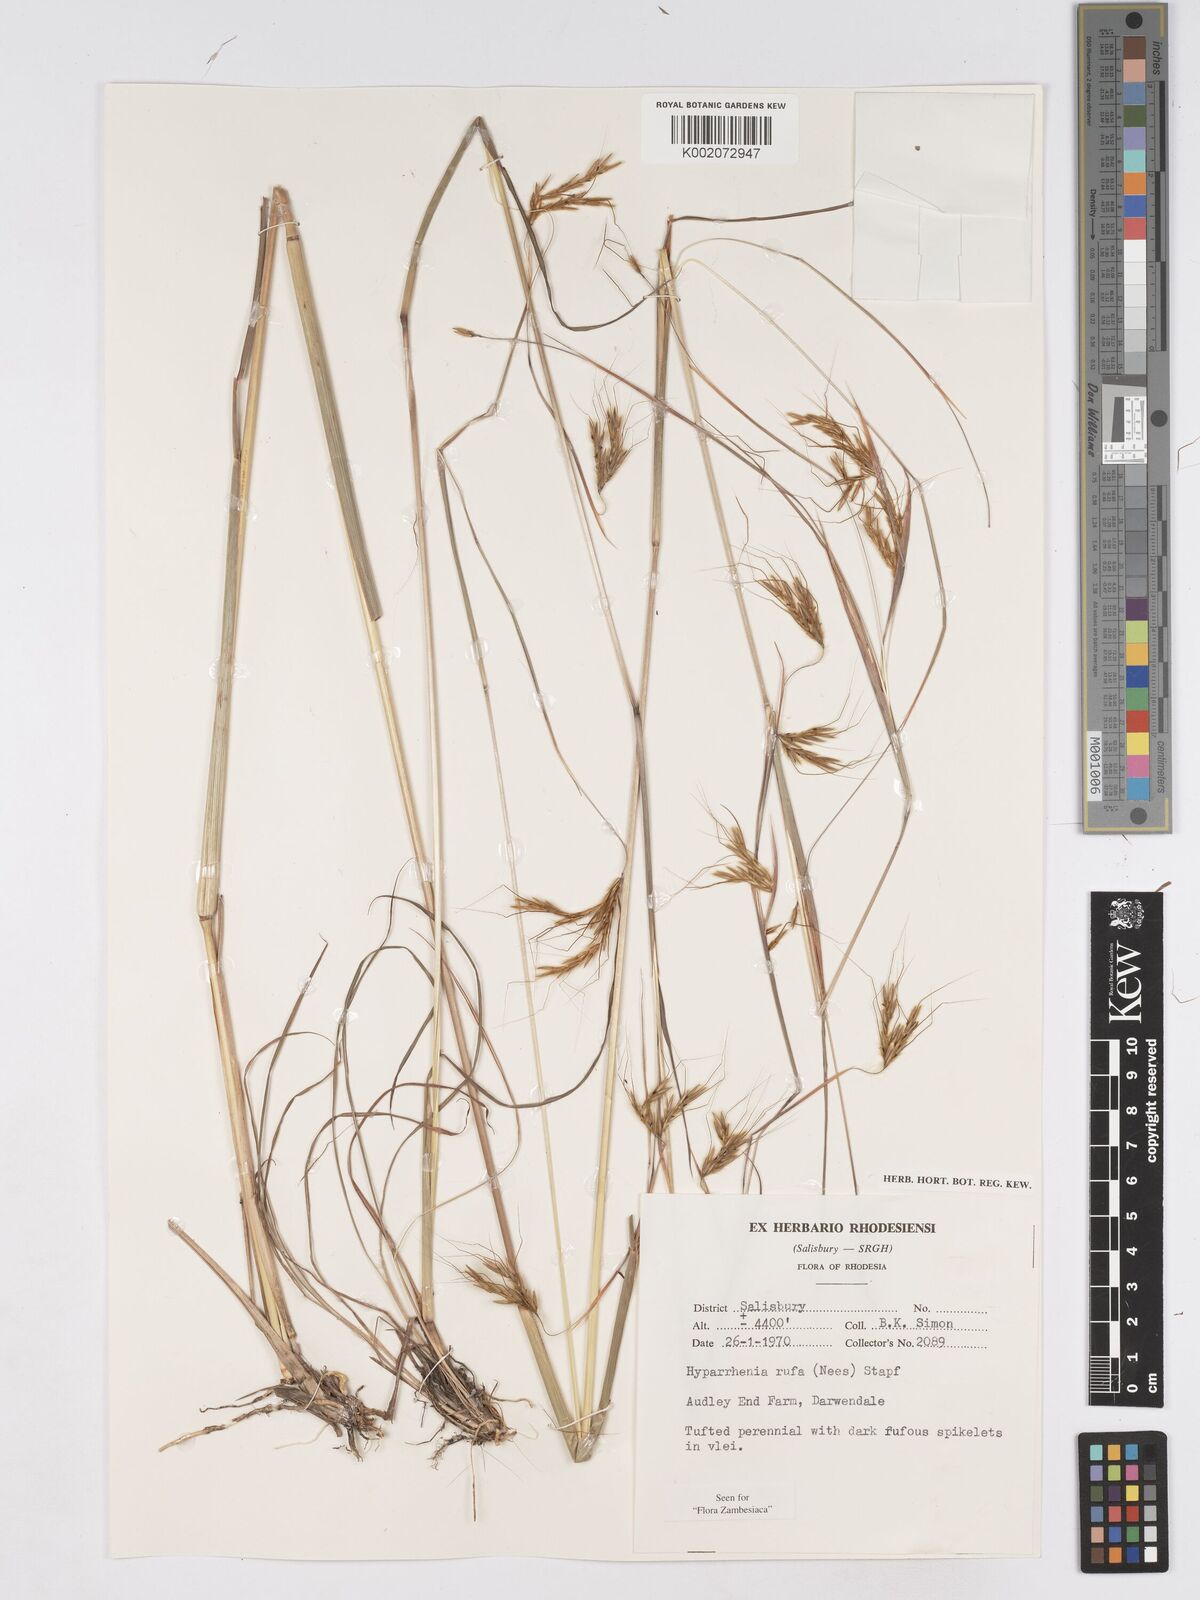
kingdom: Plantae
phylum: Tracheophyta
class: Liliopsida
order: Poales
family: Poaceae
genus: Hyparrhenia
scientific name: Hyparrhenia rufa
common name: Jaraguagrass
